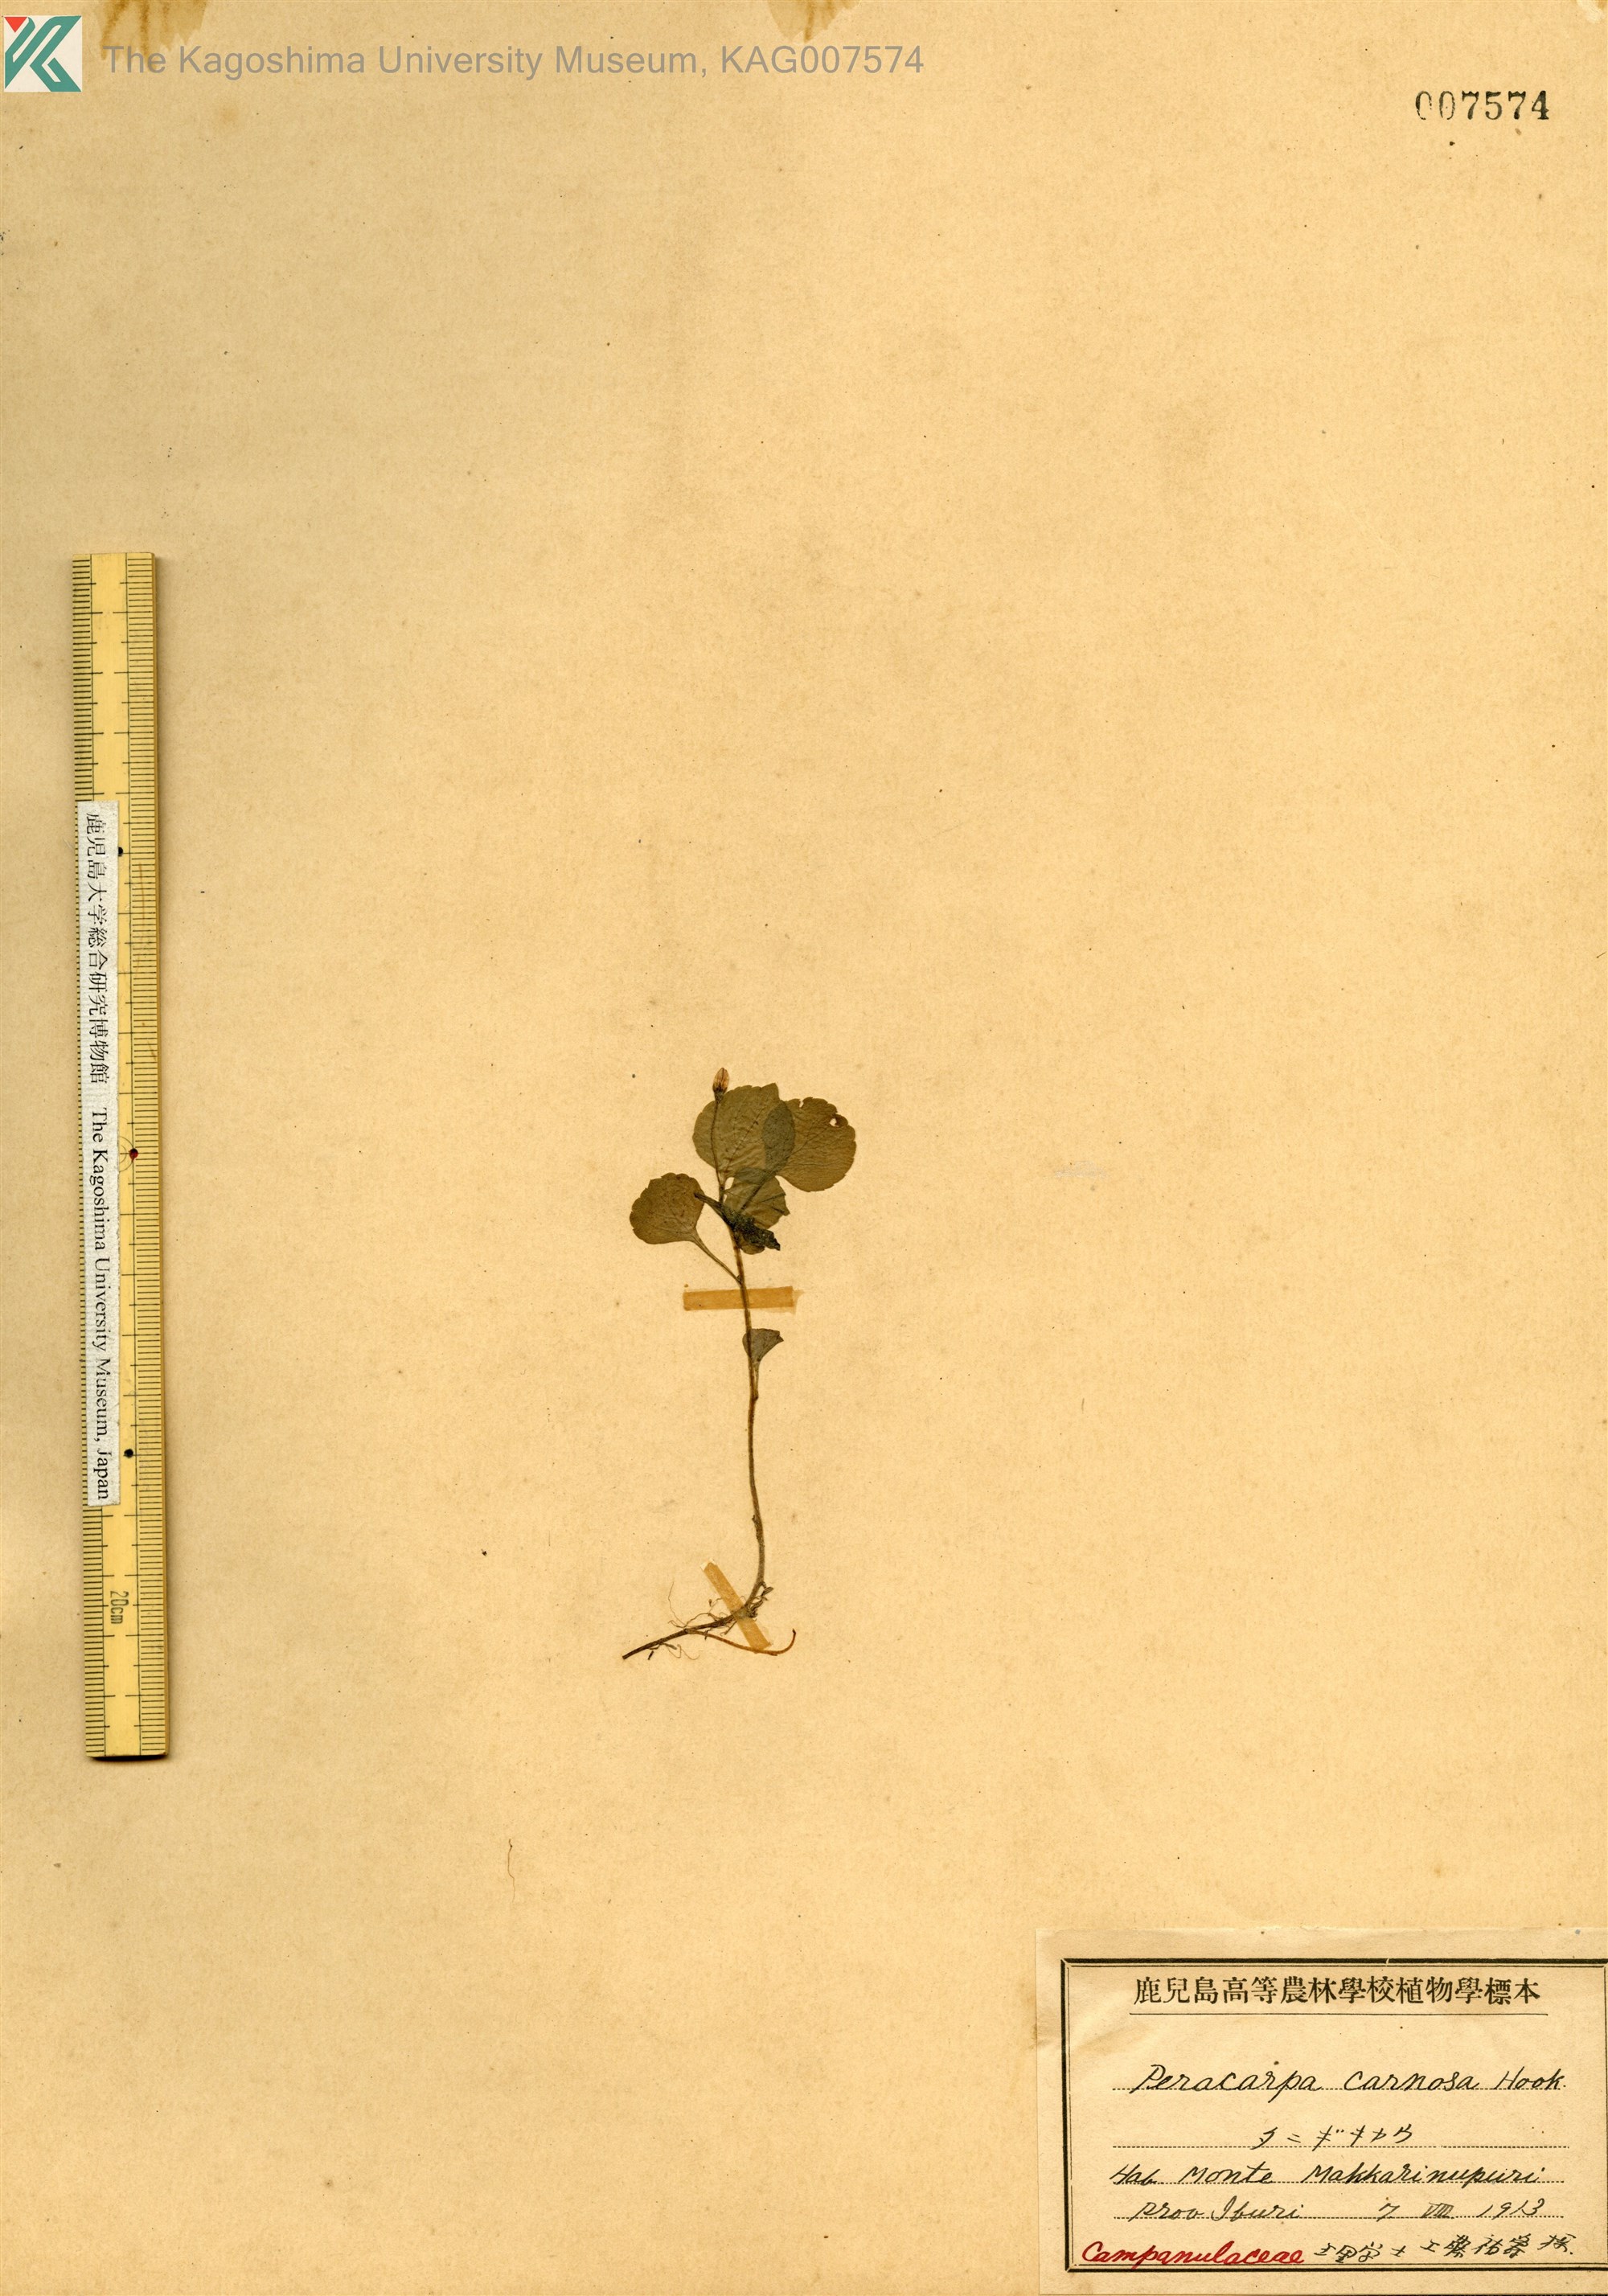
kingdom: Plantae
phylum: Tracheophyta
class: Magnoliopsida
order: Asterales
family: Campanulaceae
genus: Peracarpa
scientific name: Peracarpa carnosa
